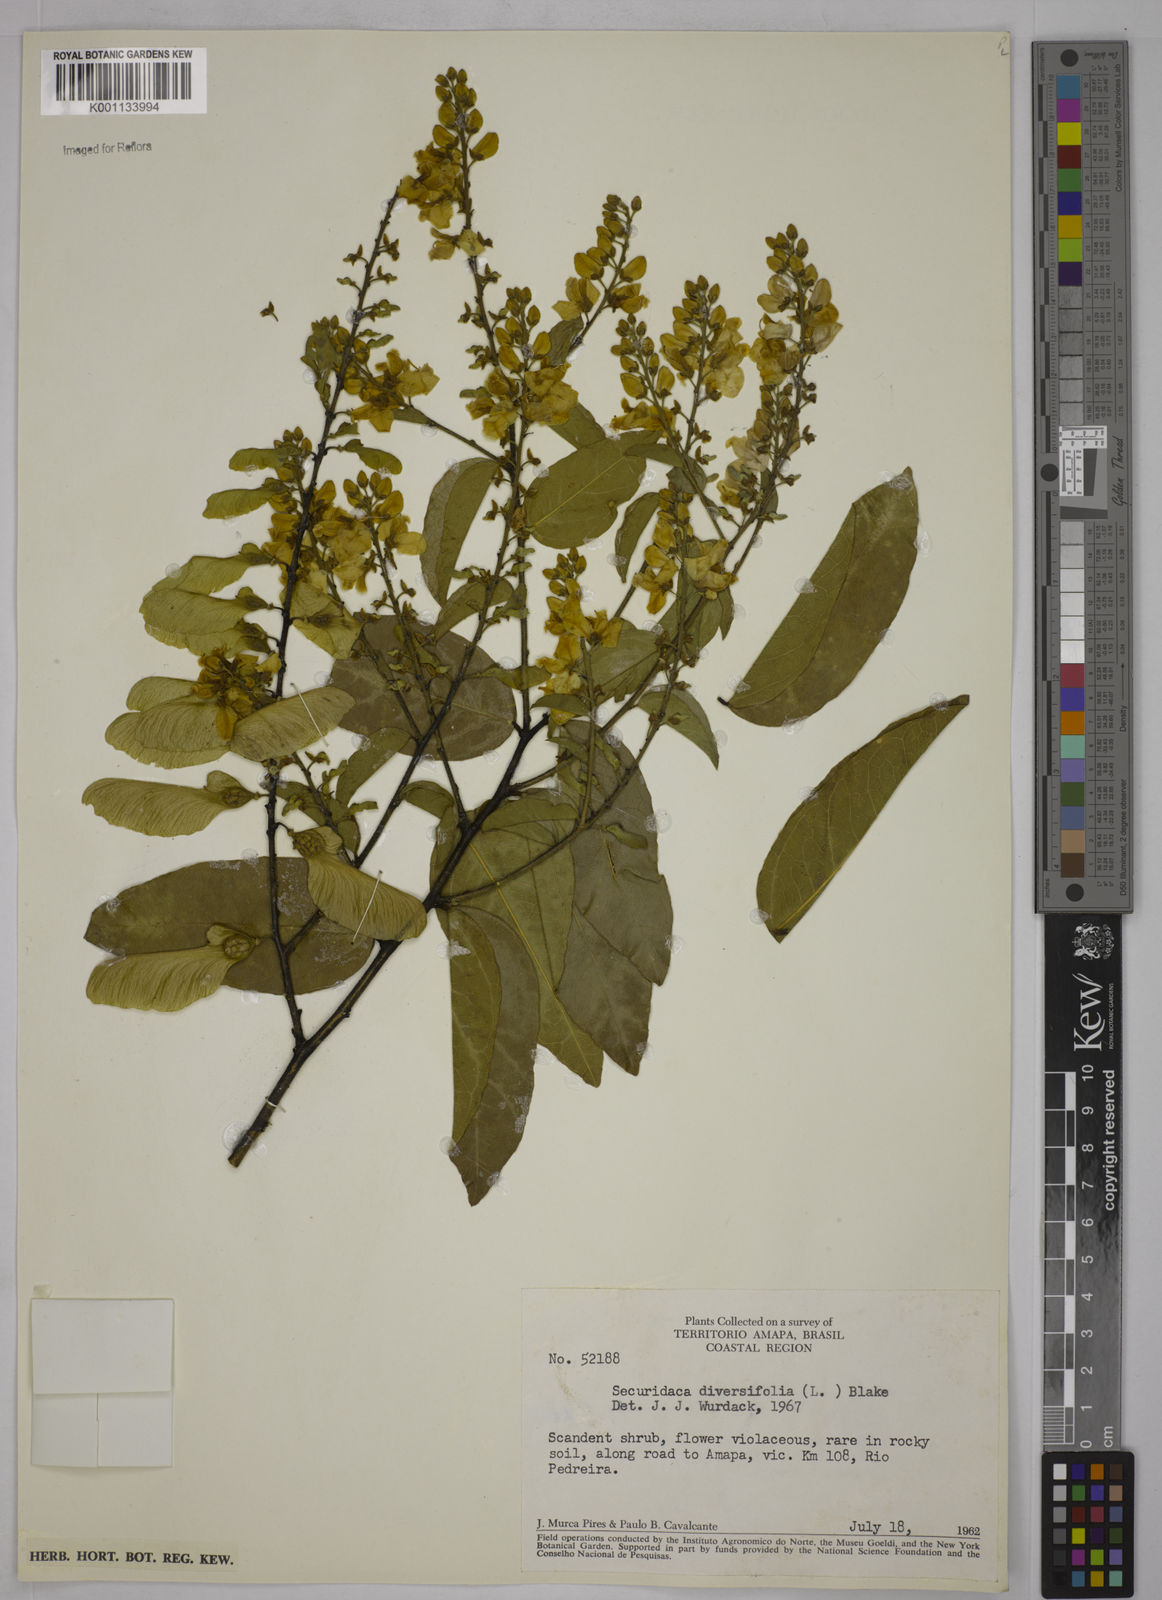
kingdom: Plantae
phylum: Tracheophyta
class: Magnoliopsida
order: Fabales
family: Polygalaceae
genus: Securidaca
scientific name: Securidaca diversifolia
